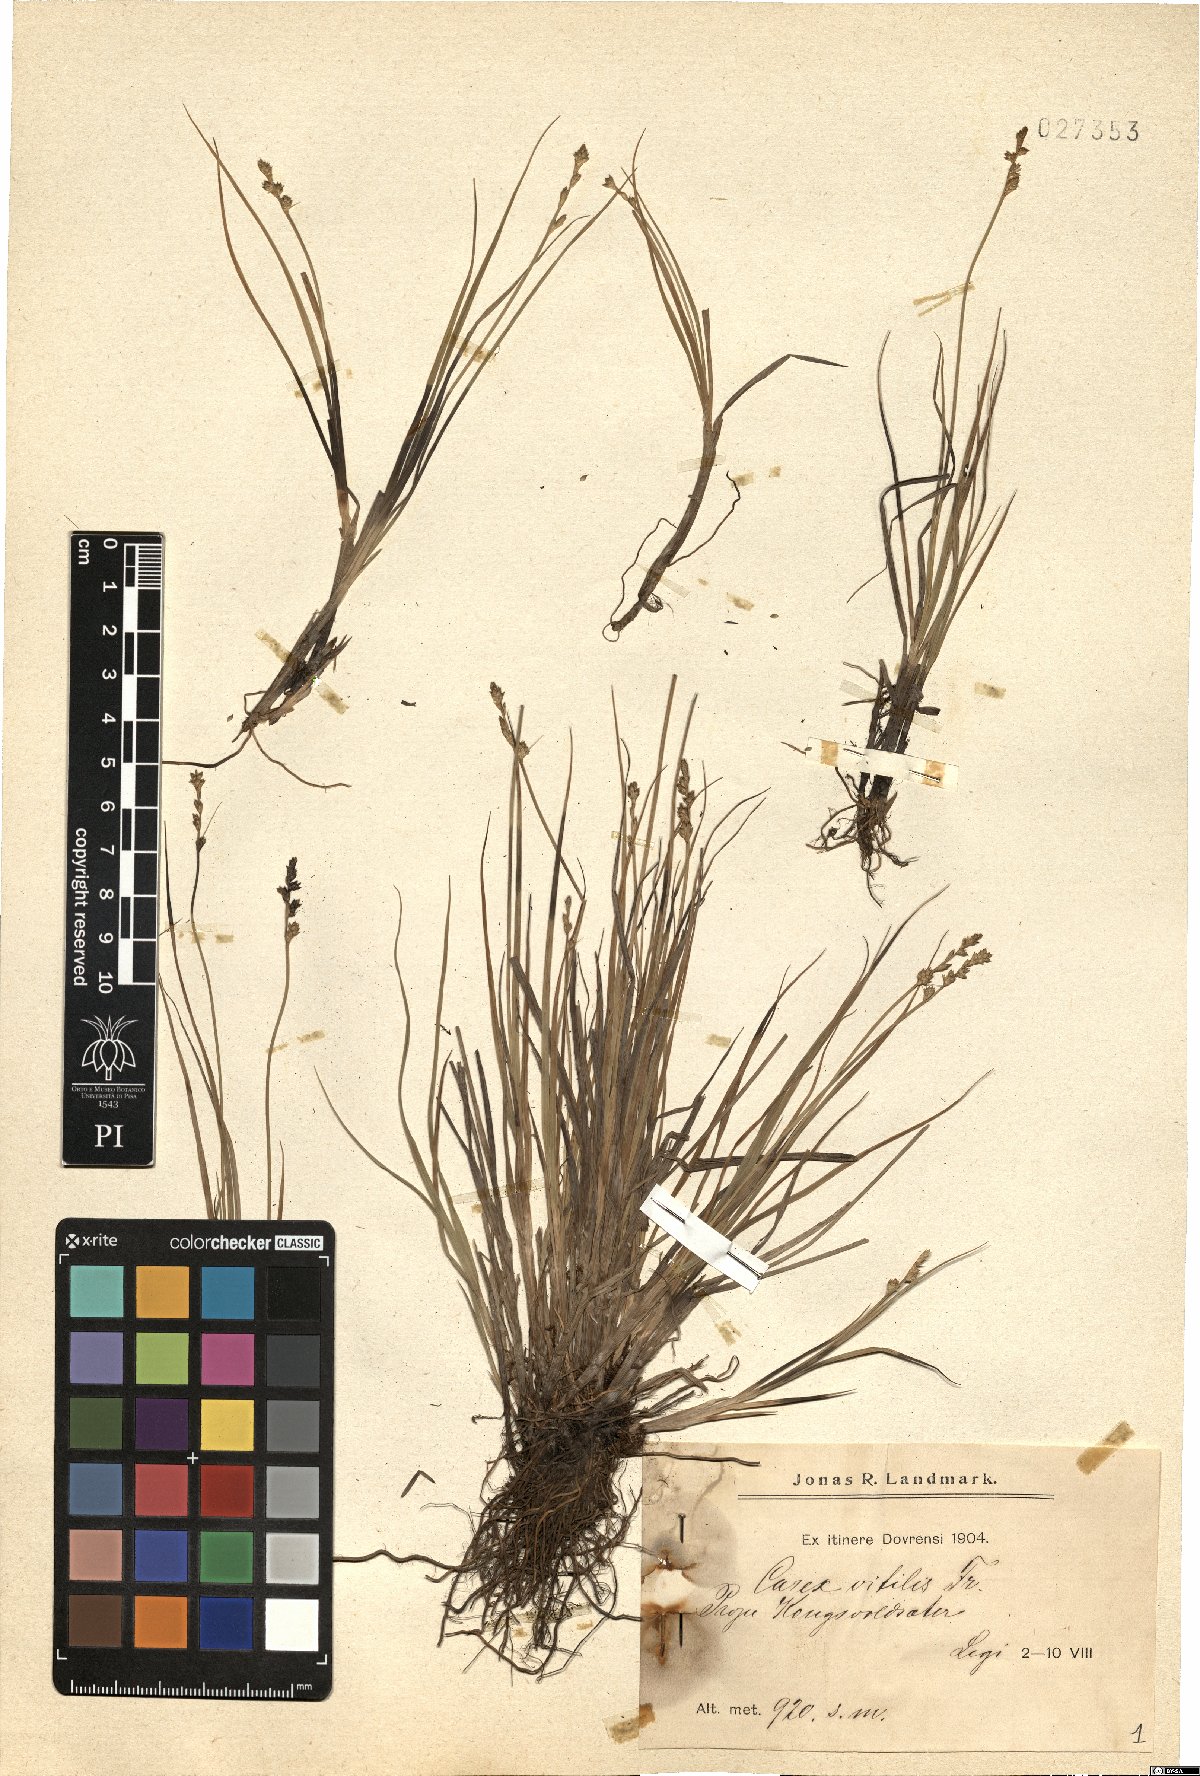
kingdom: Plantae
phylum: Tracheophyta
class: Liliopsida
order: Poales
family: Cyperaceae
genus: Carex
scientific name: Carex brunnescens
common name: Brown sedge
